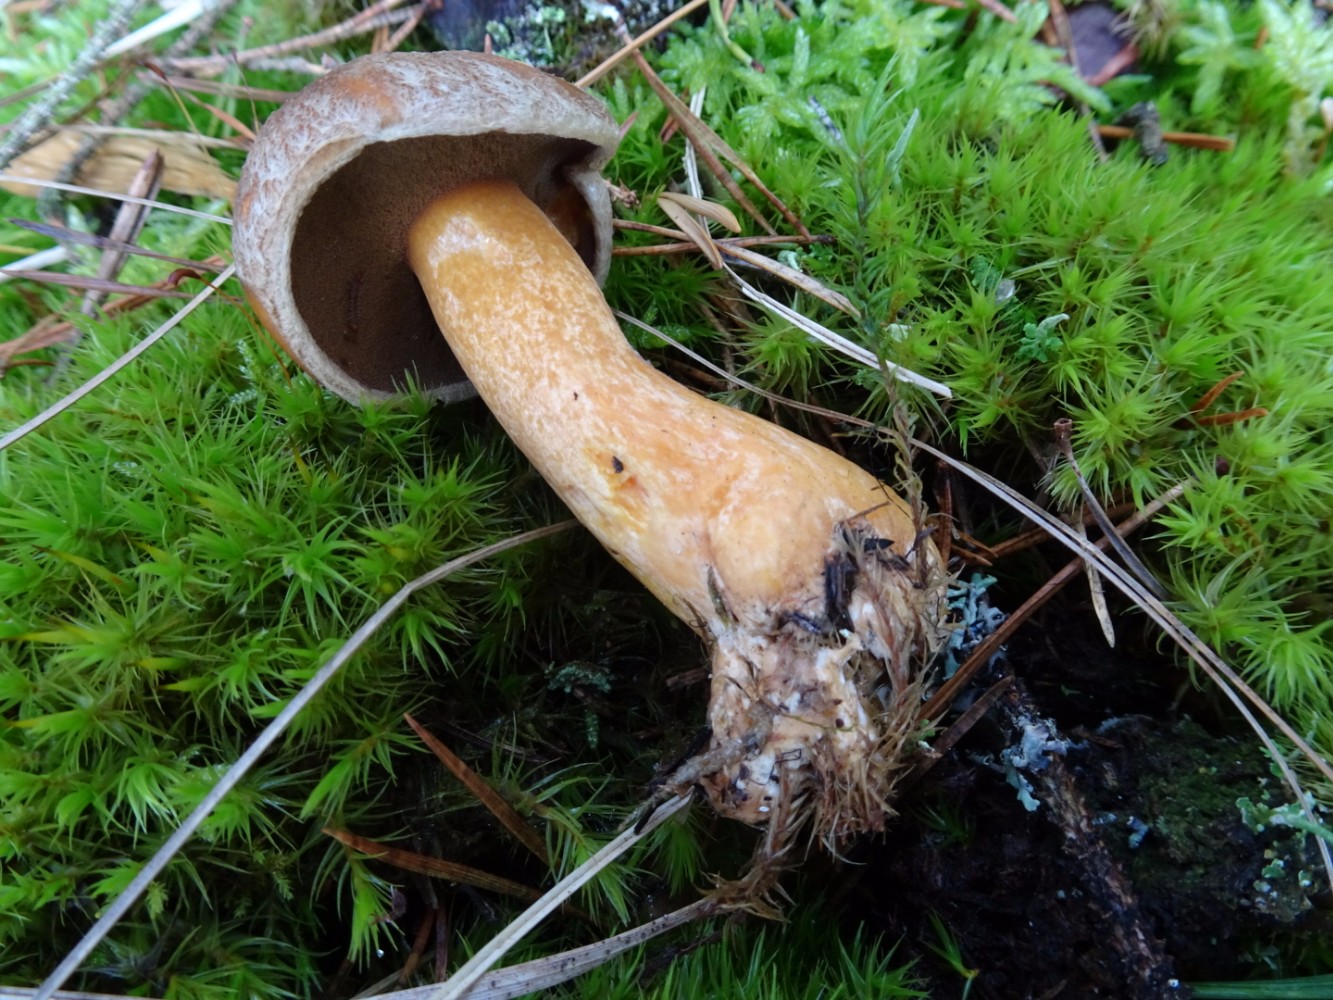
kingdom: Fungi
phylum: Basidiomycota
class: Agaricomycetes
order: Boletales
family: Suillaceae
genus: Suillus
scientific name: Suillus variegatus
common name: broget slimrørhat
